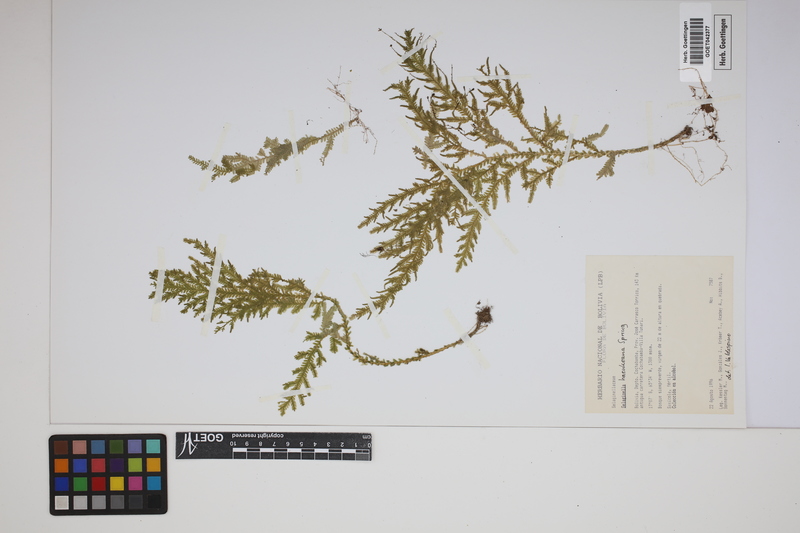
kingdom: Plantae
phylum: Tracheophyta
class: Lycopodiopsida
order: Selaginellales
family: Selaginellaceae
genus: Selaginella
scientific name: Selaginella haenkeana
